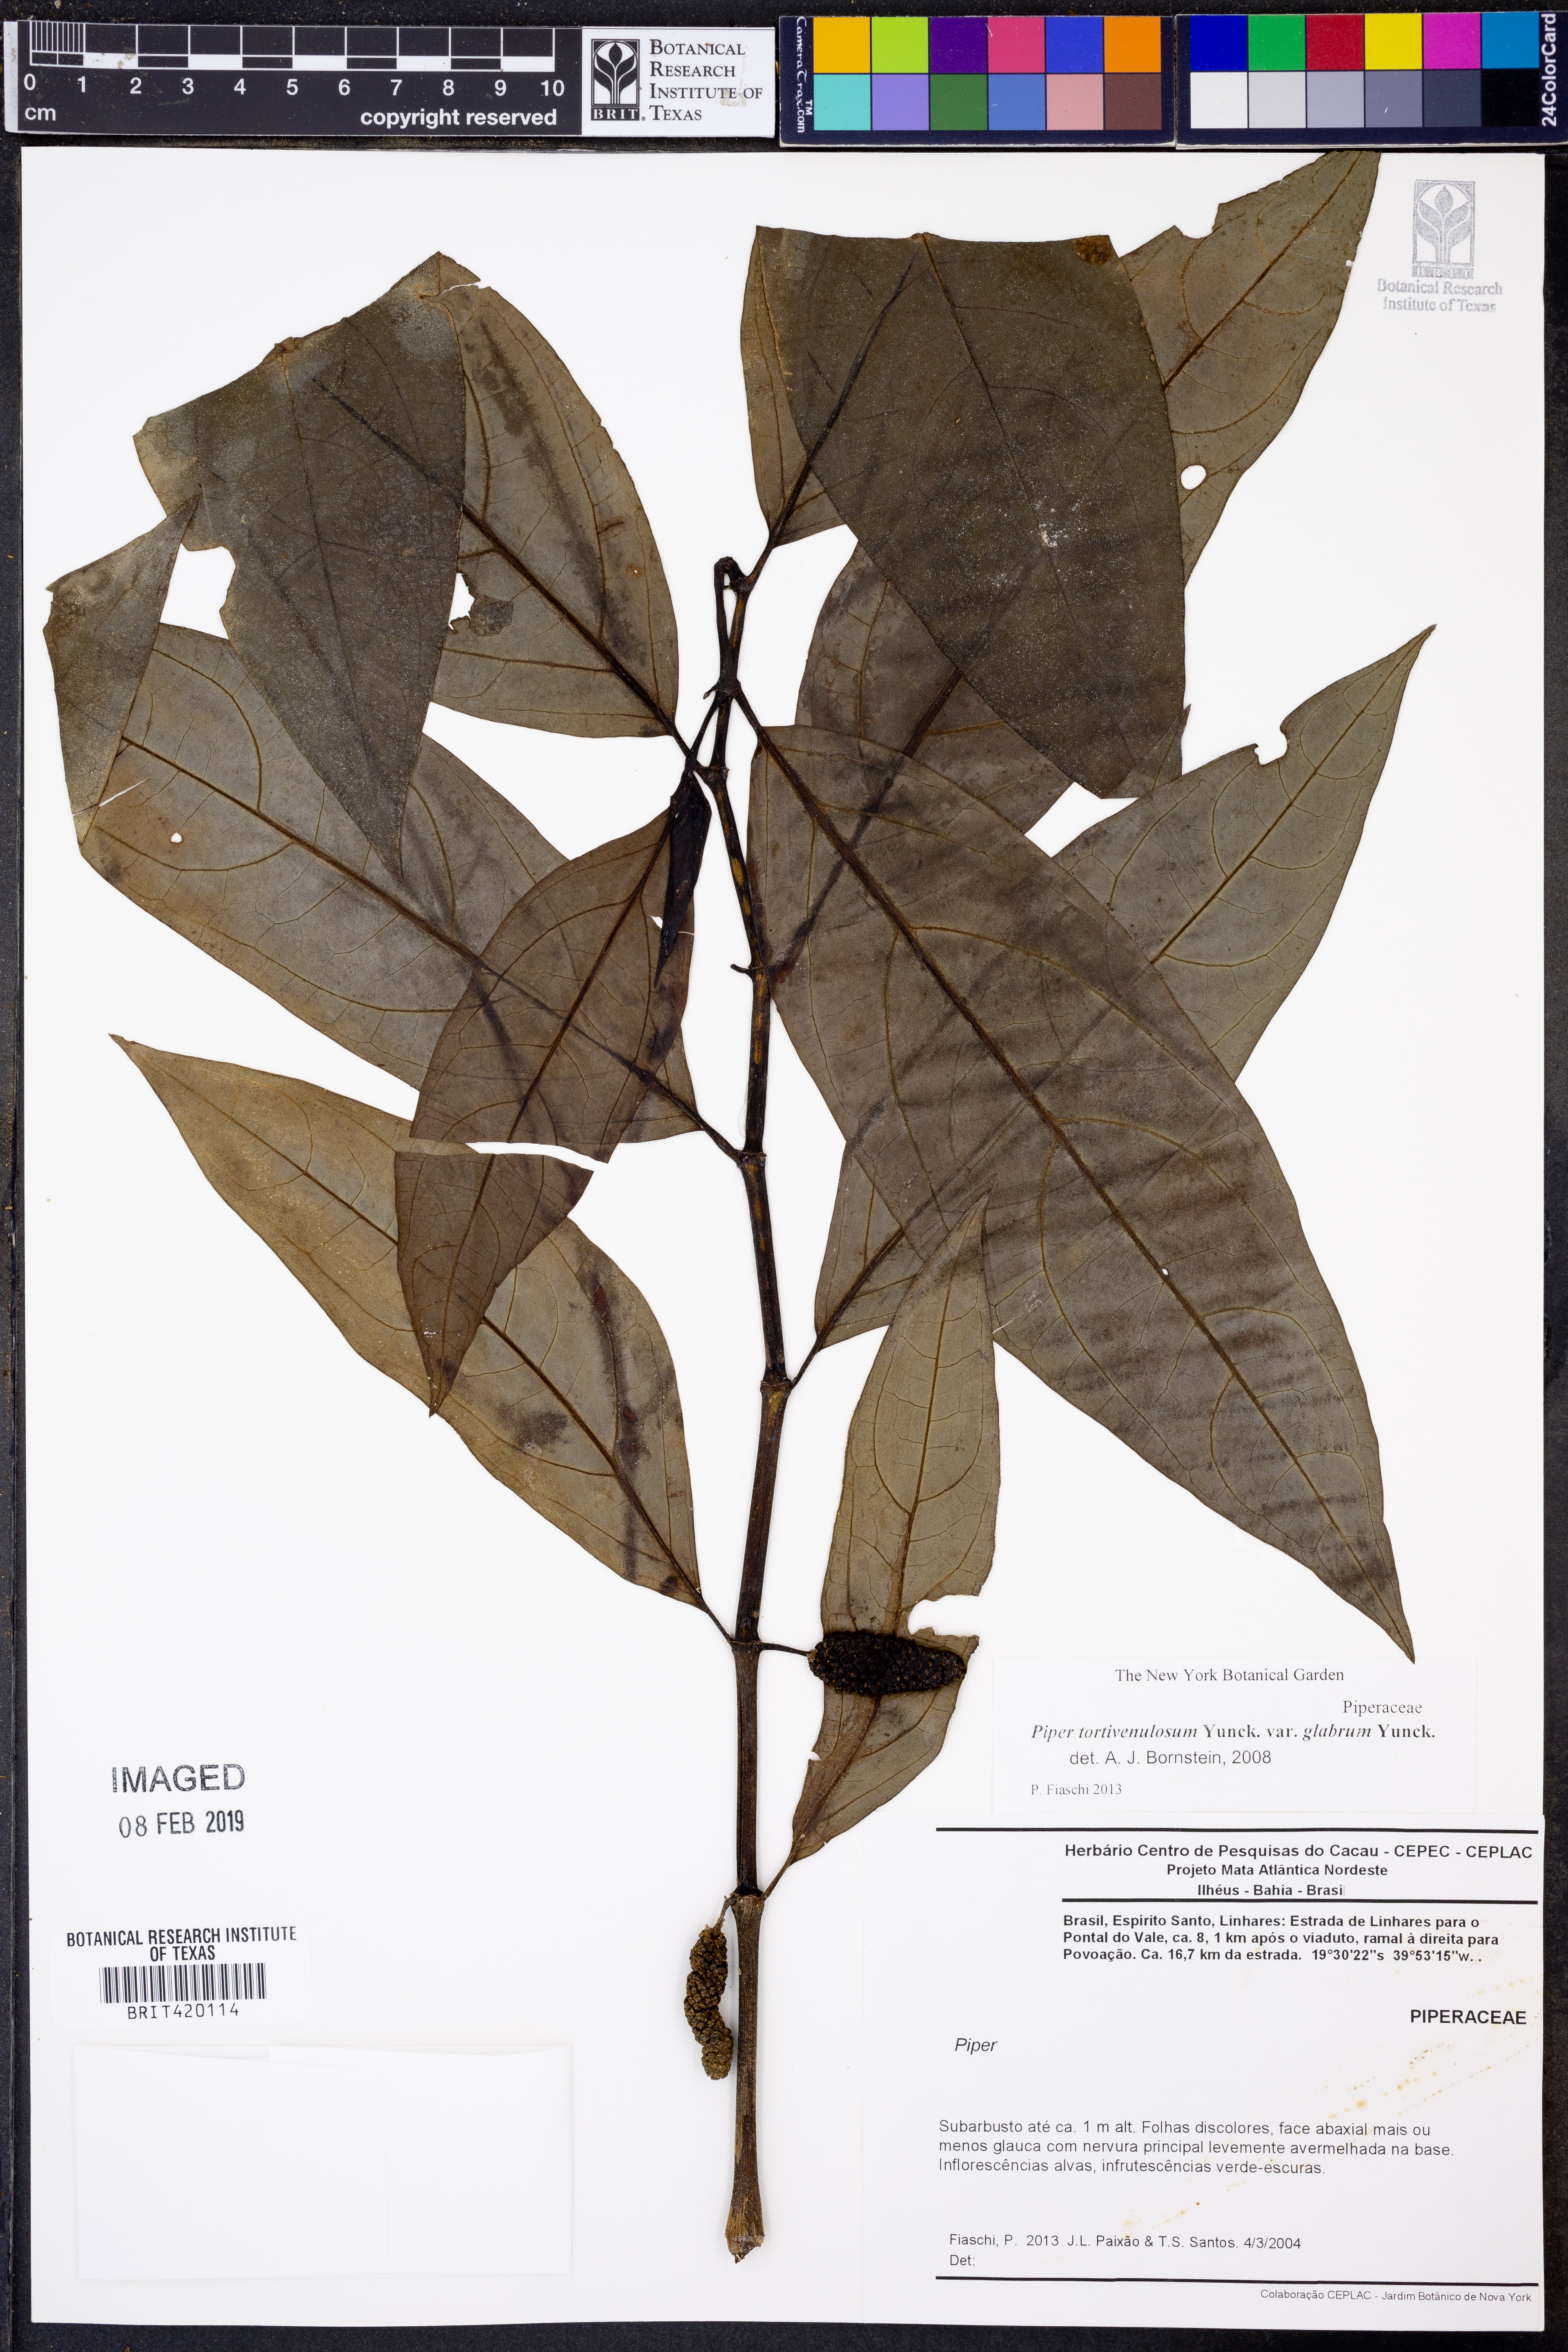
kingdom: Plantae
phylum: Tracheophyta
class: Magnoliopsida
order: Piperales
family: Piperaceae
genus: Piper
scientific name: Piper tortivenulosum
